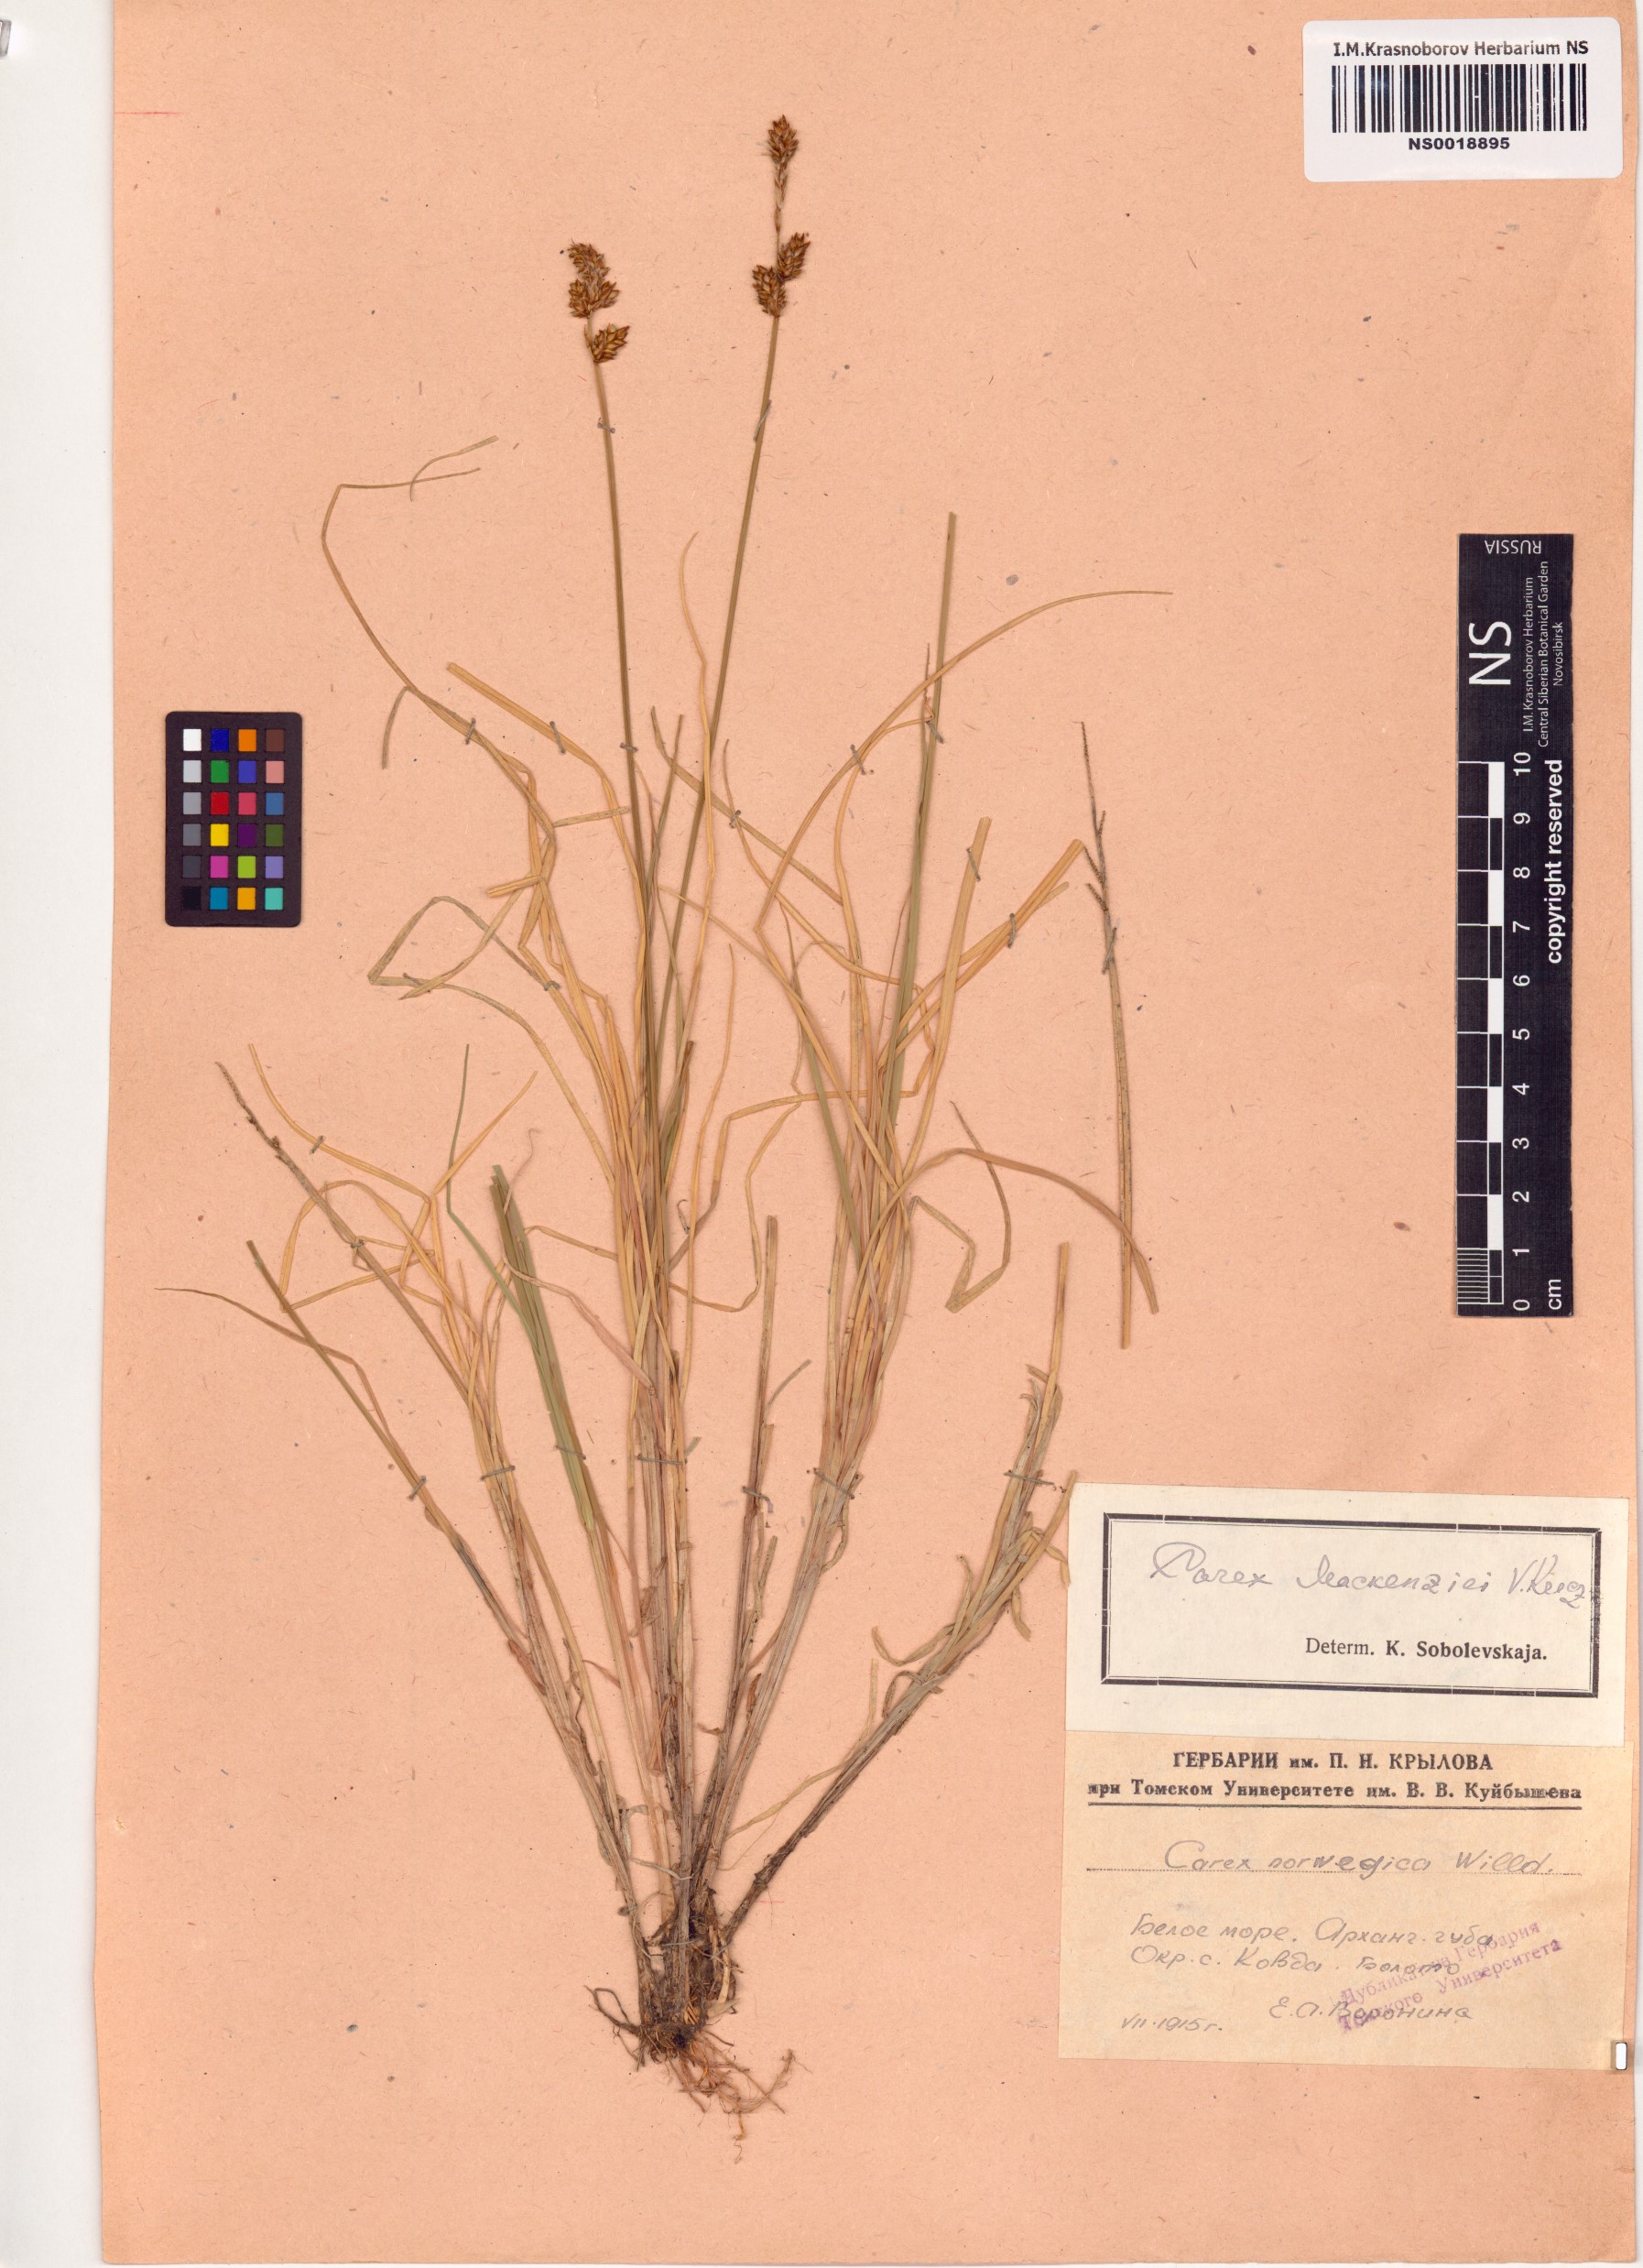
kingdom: Plantae
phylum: Tracheophyta
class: Liliopsida
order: Poales
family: Cyperaceae
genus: Carex
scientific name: Carex mackenziei
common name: Mackenzie's sedge
